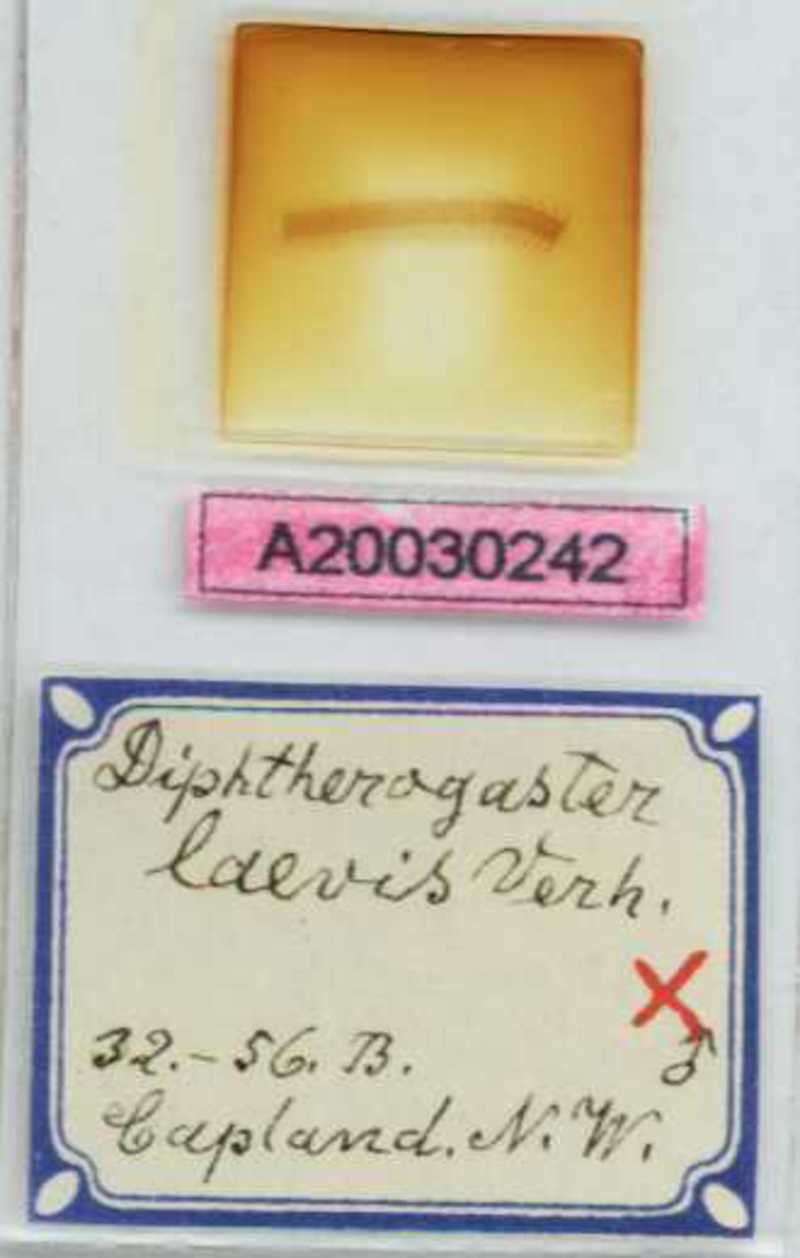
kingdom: Animalia
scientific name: Animalia
